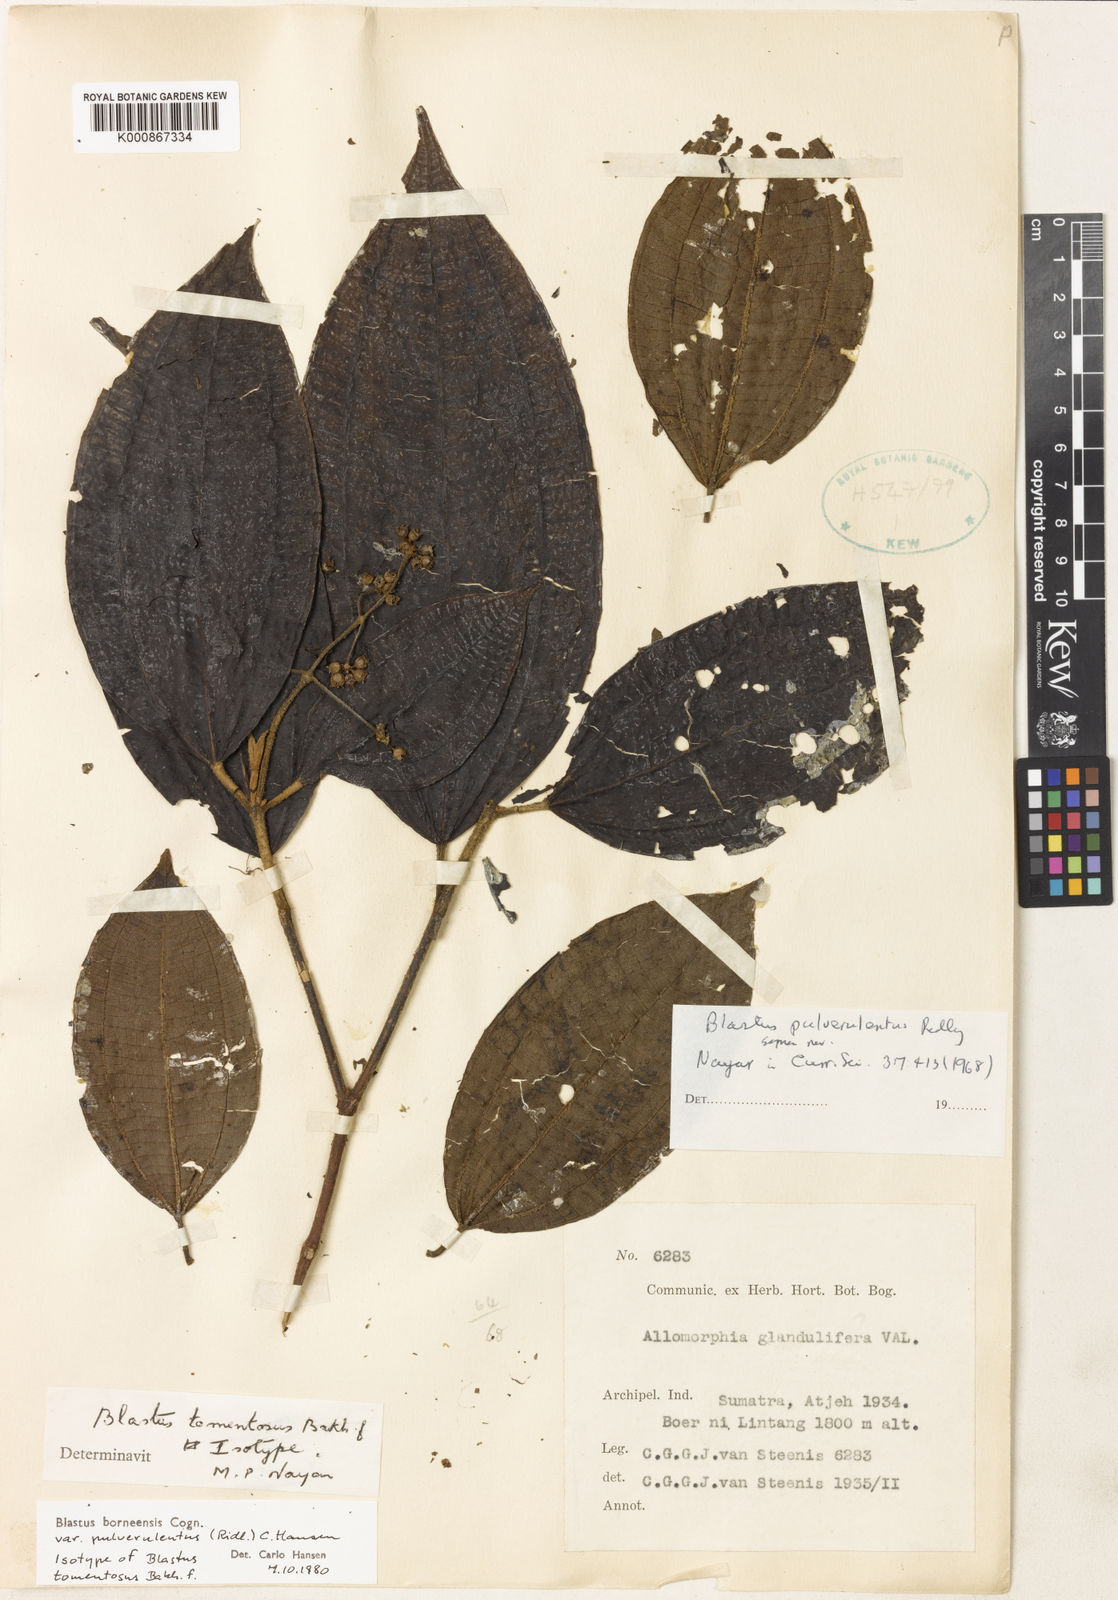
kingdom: Plantae
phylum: Tracheophyta
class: Magnoliopsida
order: Myrtales
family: Melastomataceae
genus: Blastus
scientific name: Blastus borneensis
